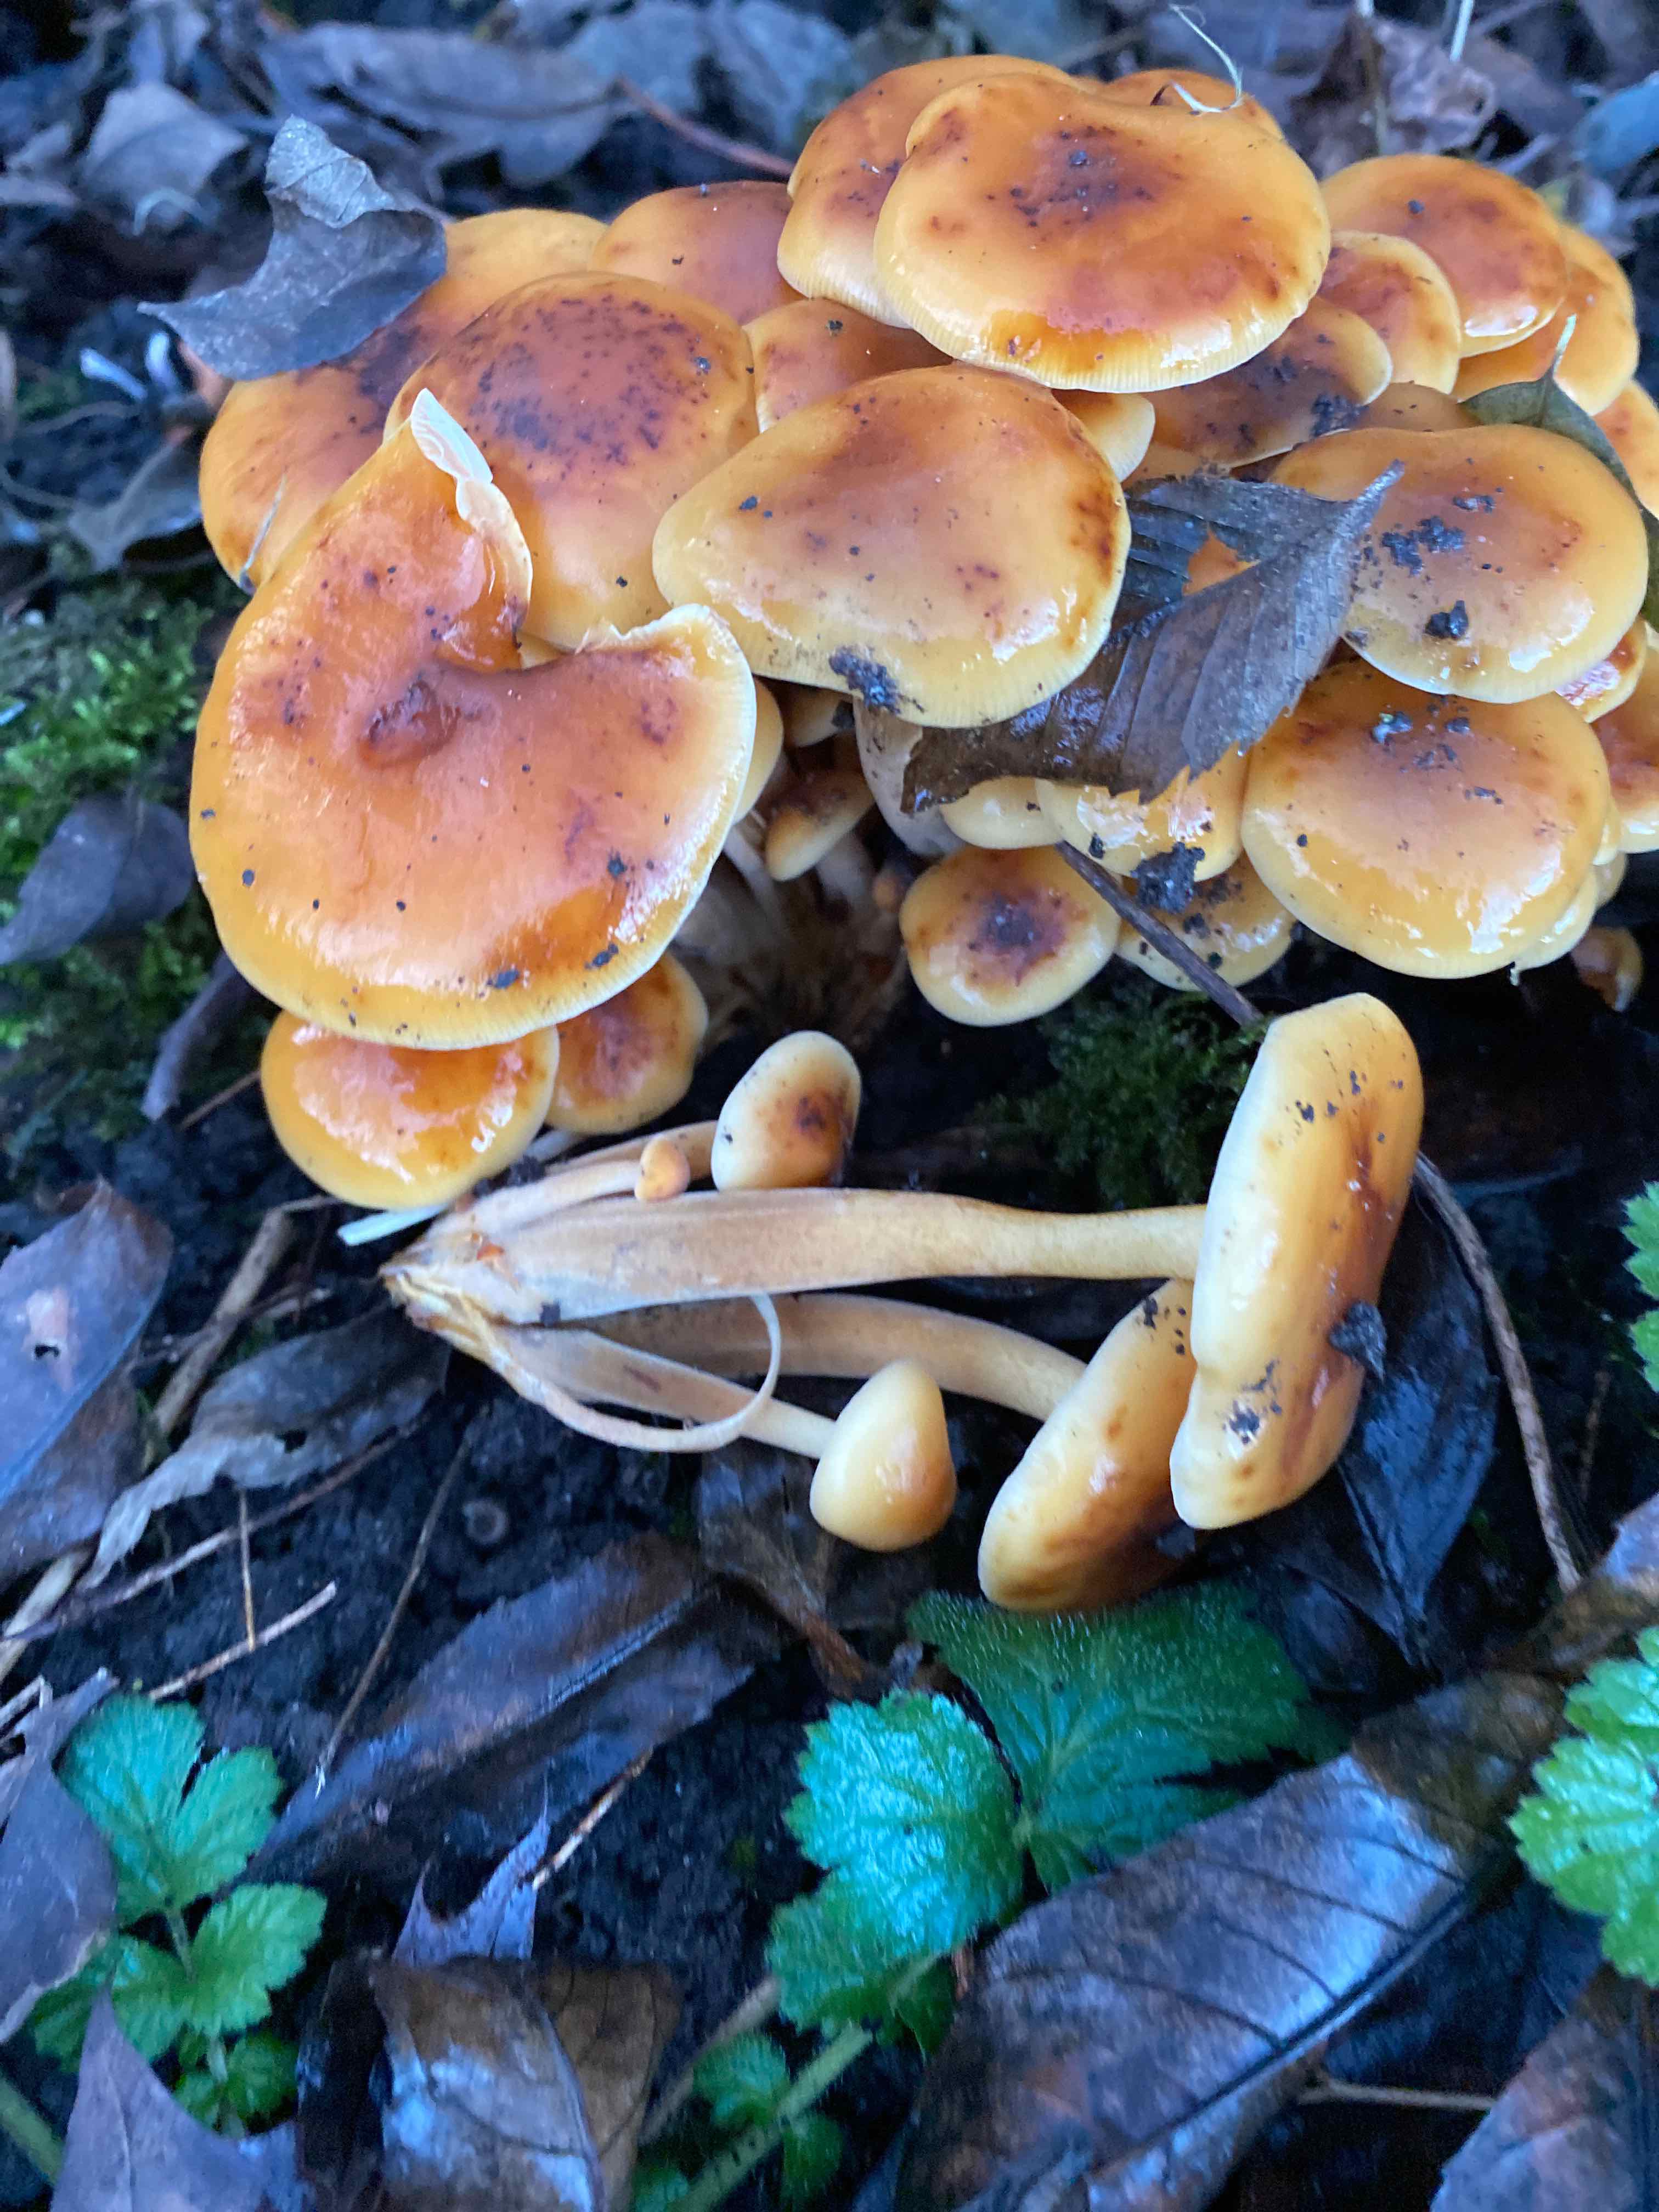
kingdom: Fungi
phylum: Basidiomycota
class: Agaricomycetes
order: Agaricales
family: Physalacriaceae
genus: Flammulina
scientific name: Flammulina
